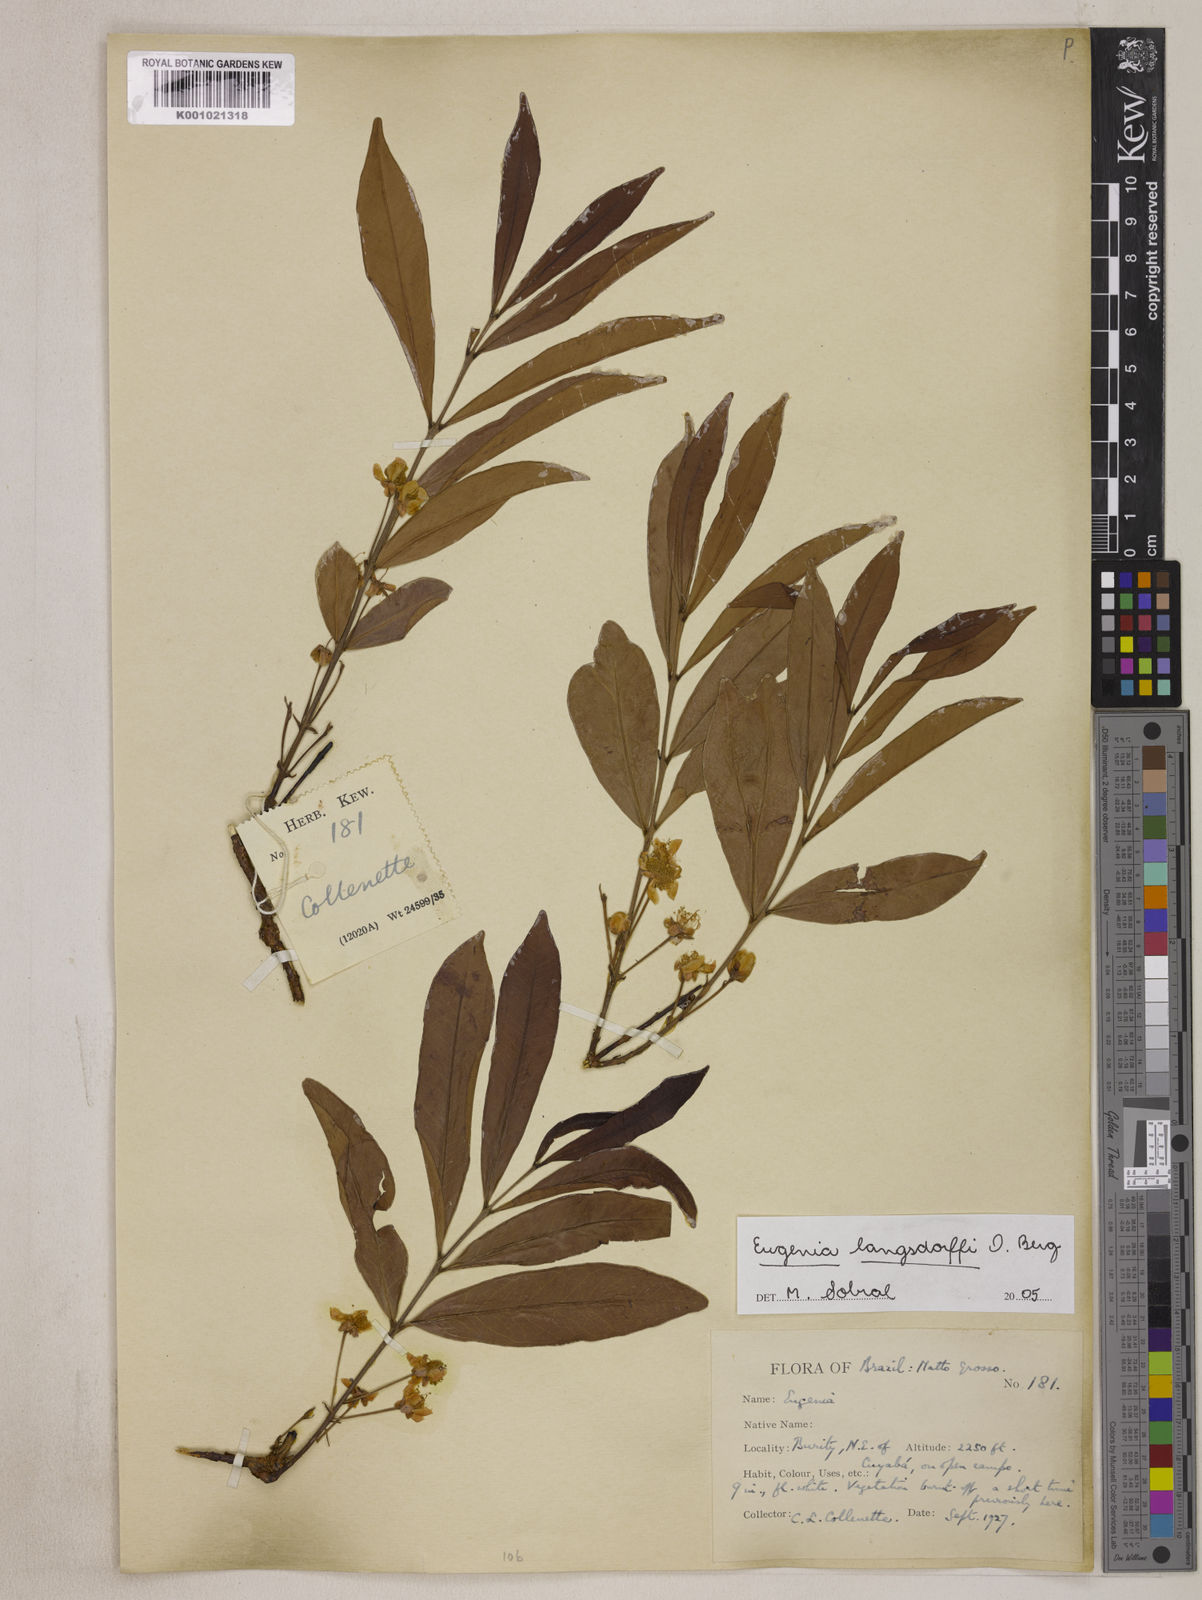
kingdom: Plantae
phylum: Tracheophyta
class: Magnoliopsida
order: Myrtales
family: Myrtaceae
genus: Eugenia
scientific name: Eugenia langsdorffii
